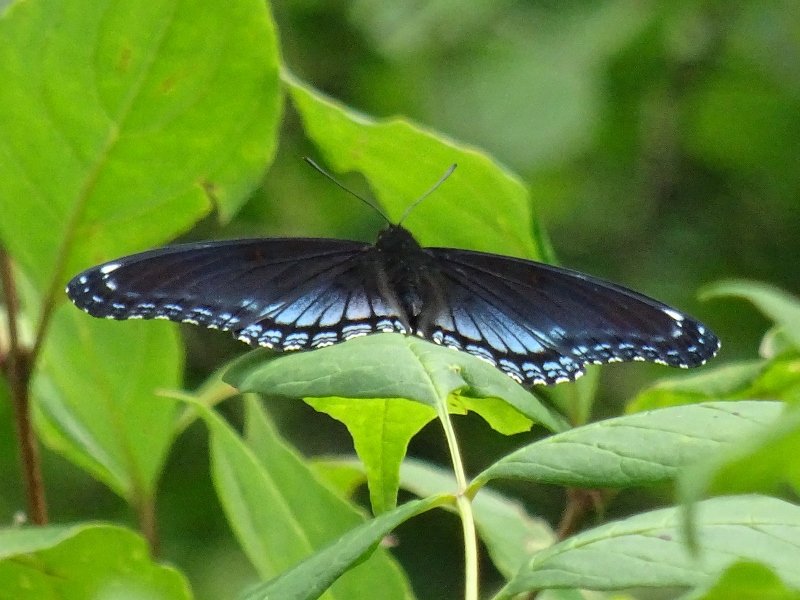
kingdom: Animalia
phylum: Arthropoda
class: Insecta
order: Lepidoptera
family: Nymphalidae
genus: Limenitis
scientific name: Limenitis astyanax
